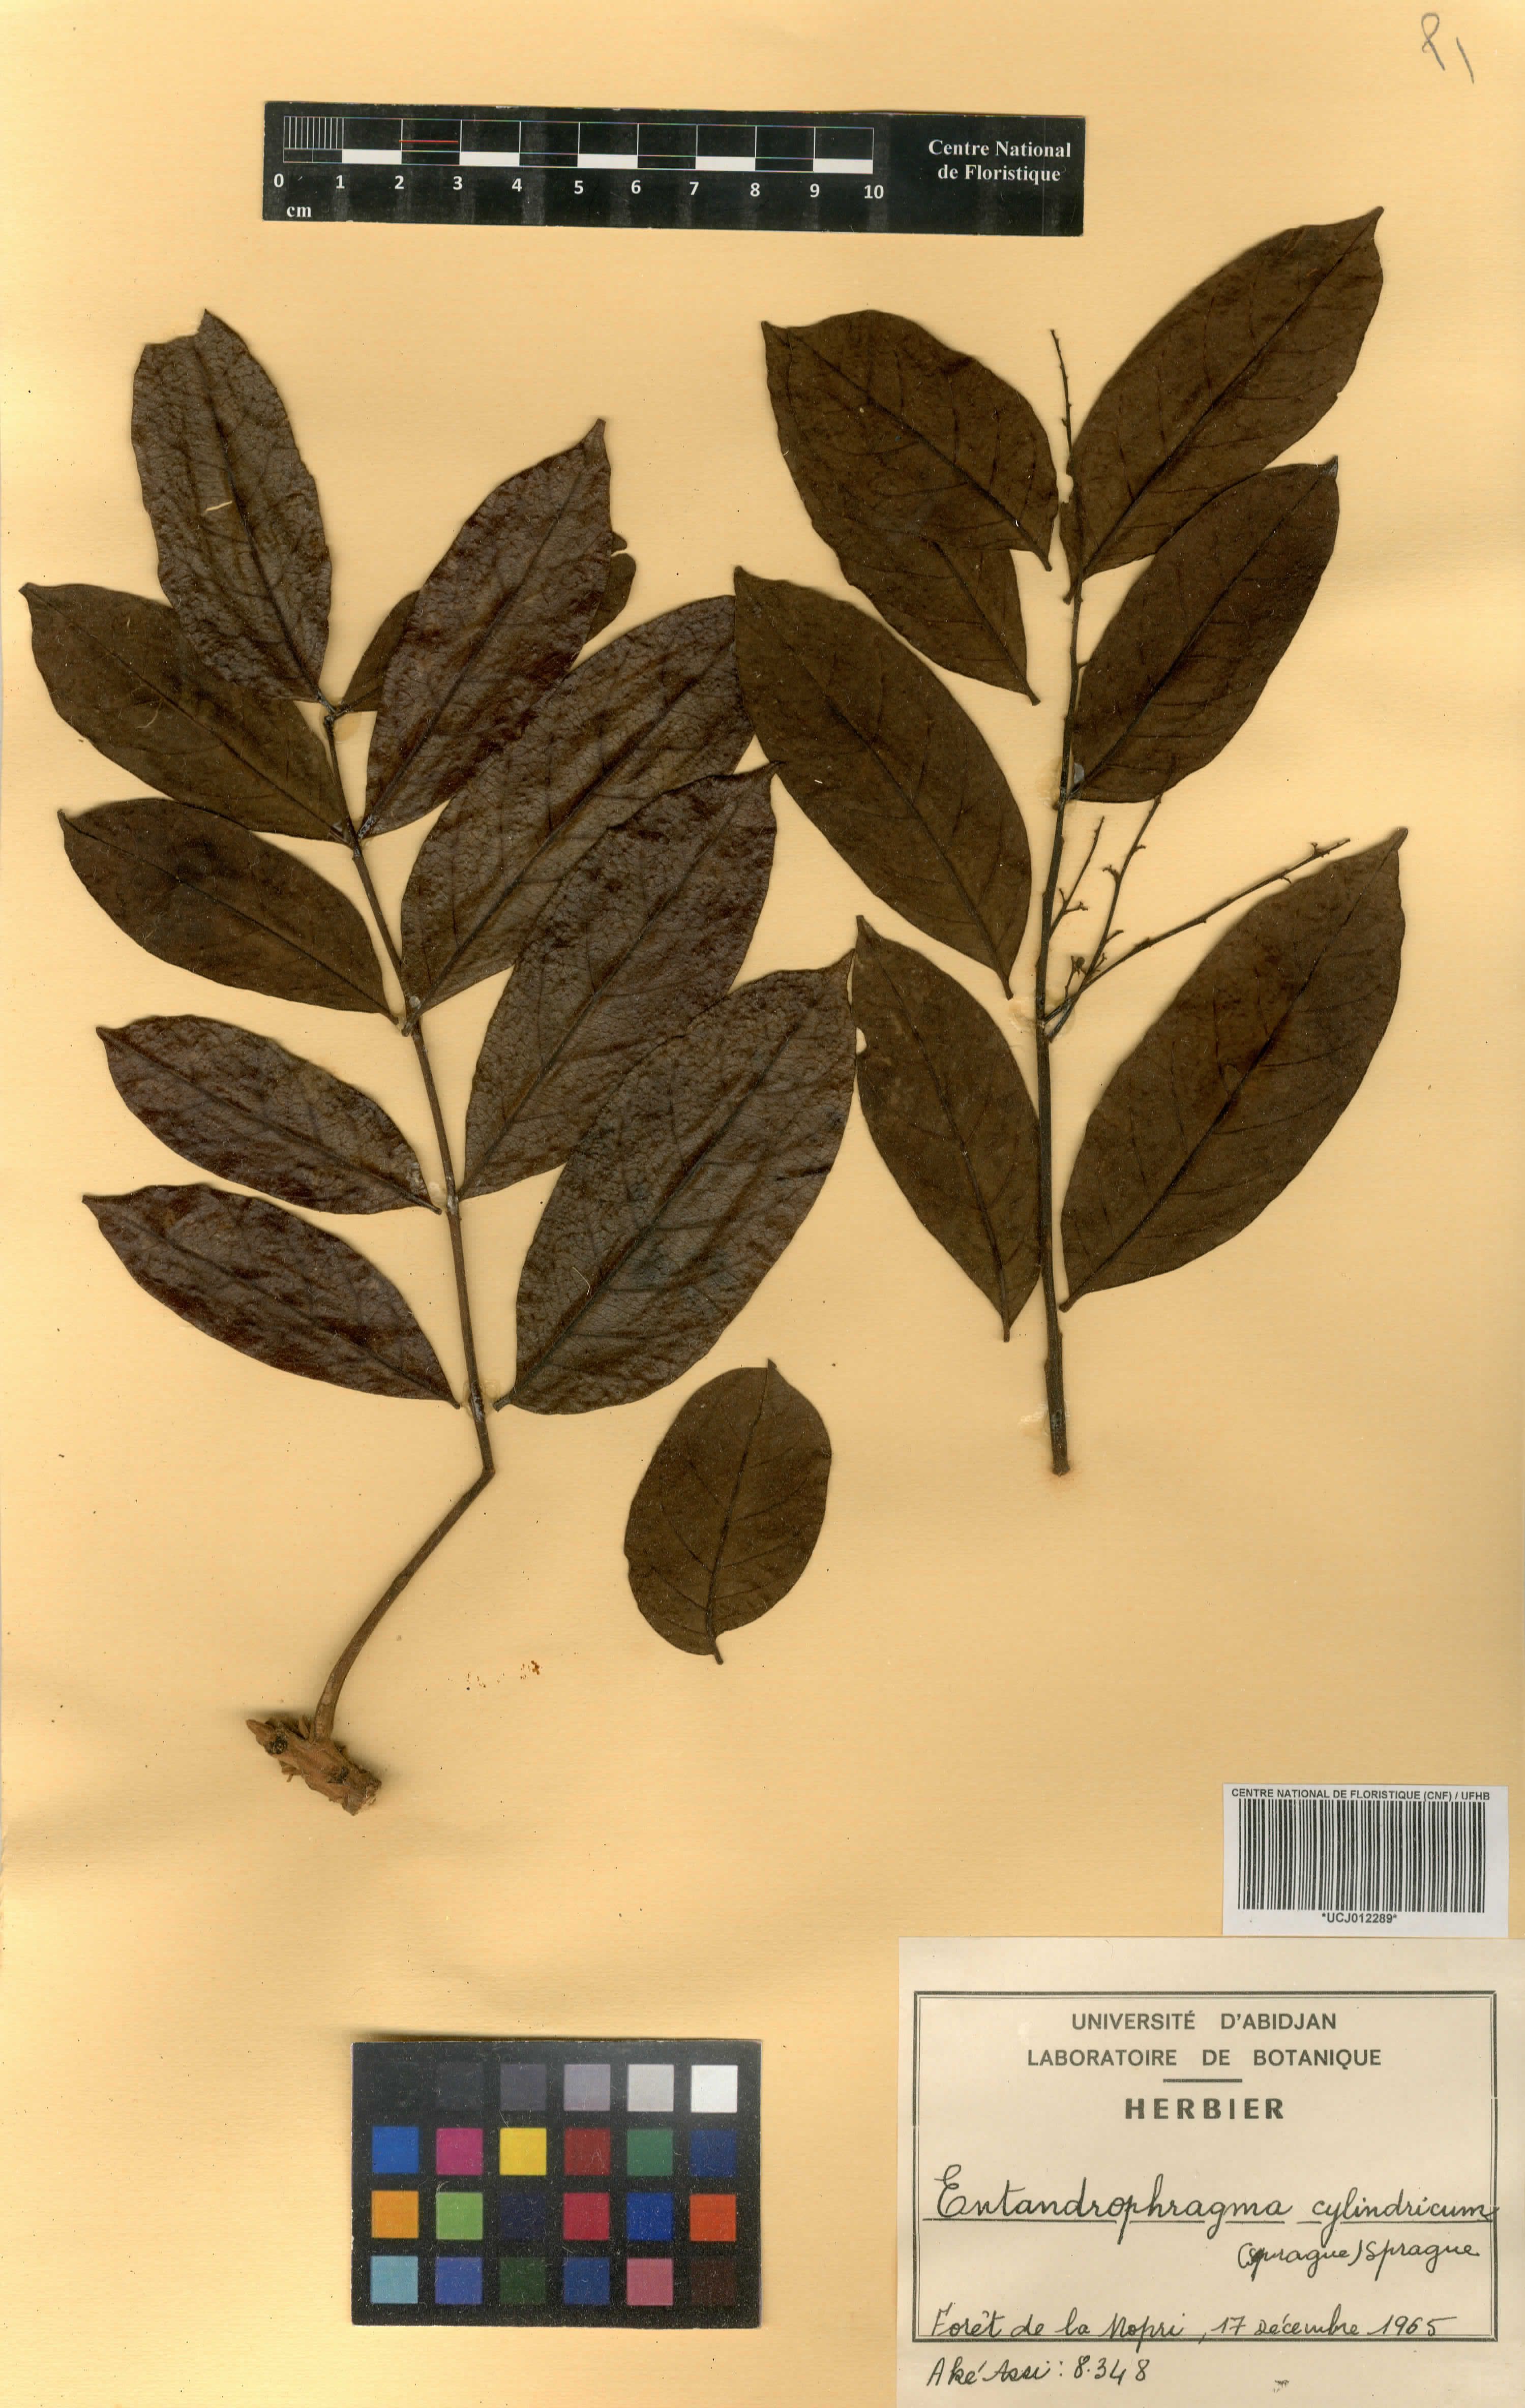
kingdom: Plantae
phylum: Tracheophyta
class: Magnoliopsida
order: Sapindales
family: Meliaceae
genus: Entandrophragma
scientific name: Entandrophragma cylindricum
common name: Sapele
